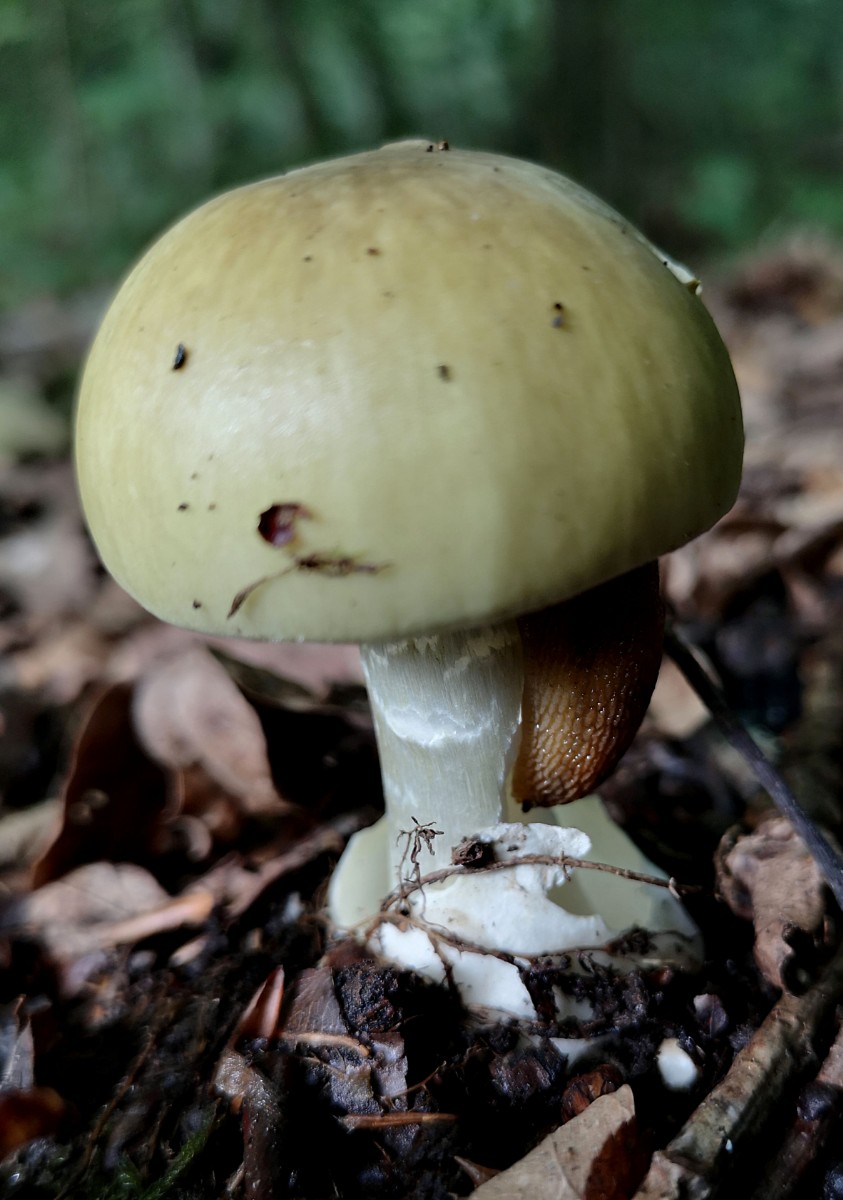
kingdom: Fungi
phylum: Basidiomycota
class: Agaricomycetes
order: Agaricales
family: Amanitaceae
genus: Amanita
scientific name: Amanita phalloides
